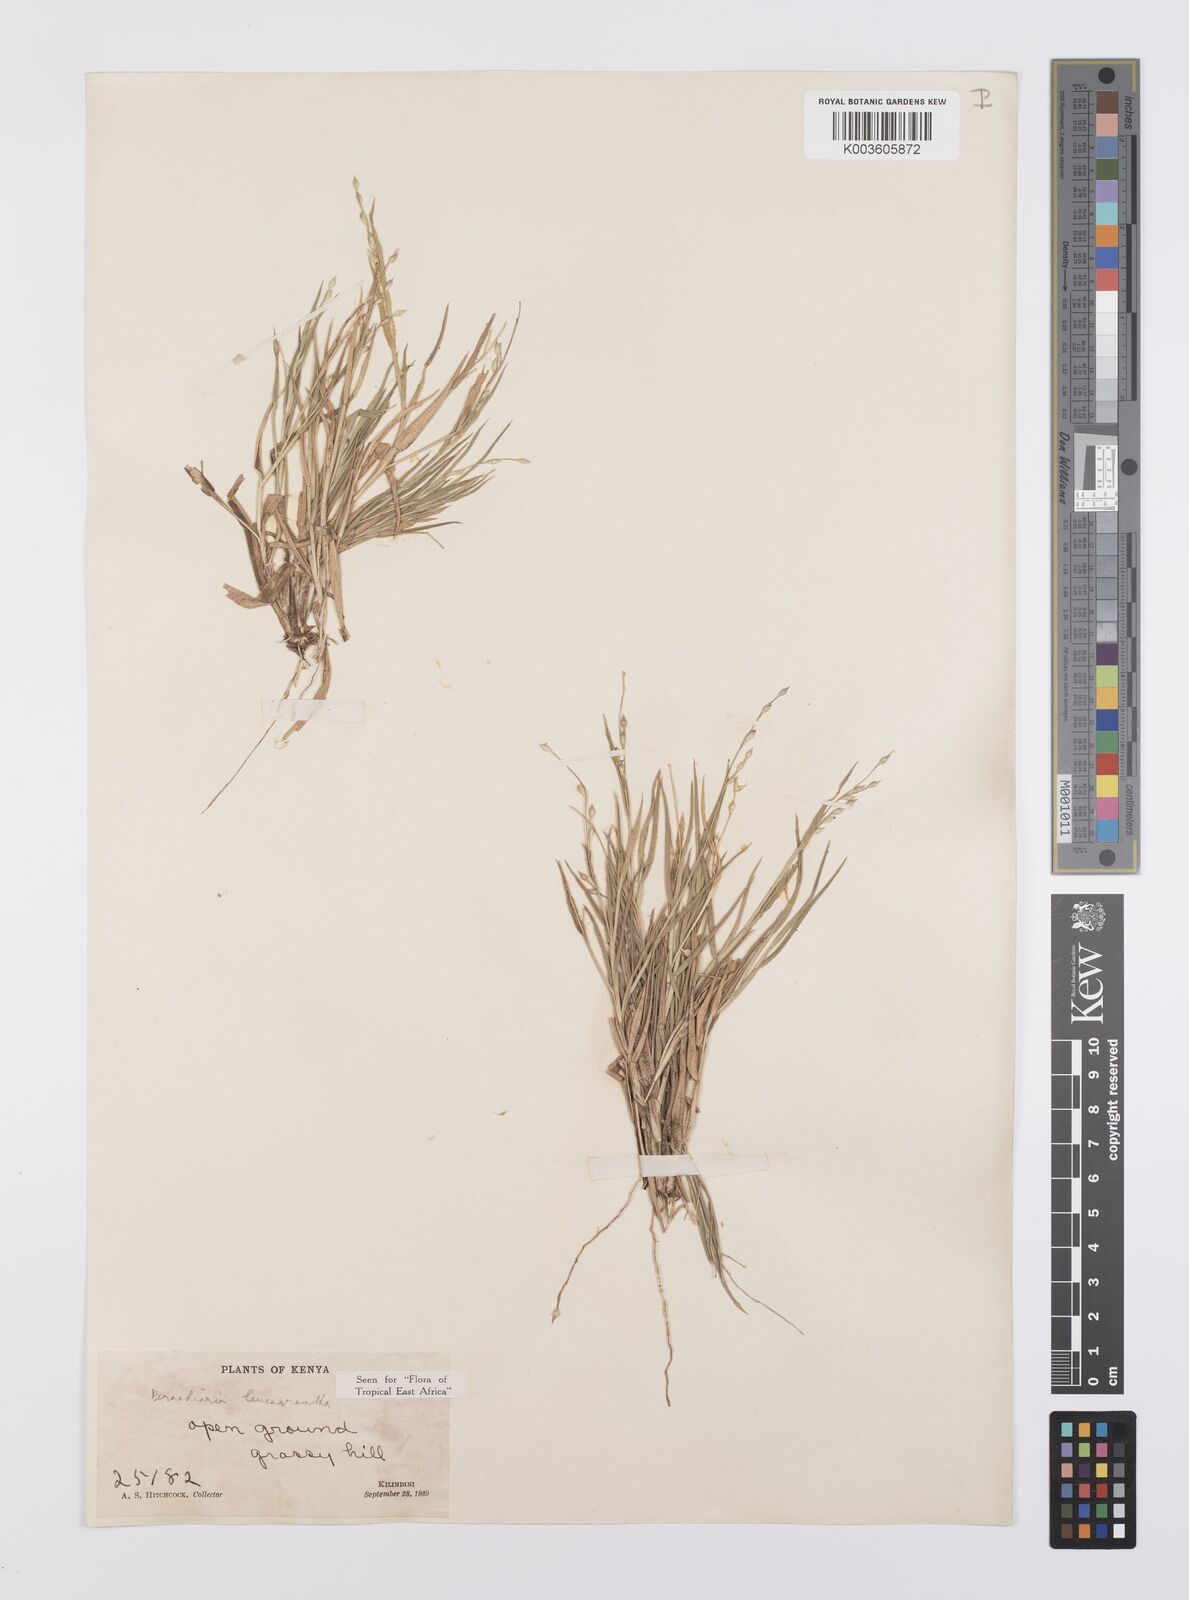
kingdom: Plantae
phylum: Tracheophyta
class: Liliopsida
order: Poales
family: Poaceae
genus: Urochloa
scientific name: Urochloa xantholeuca
